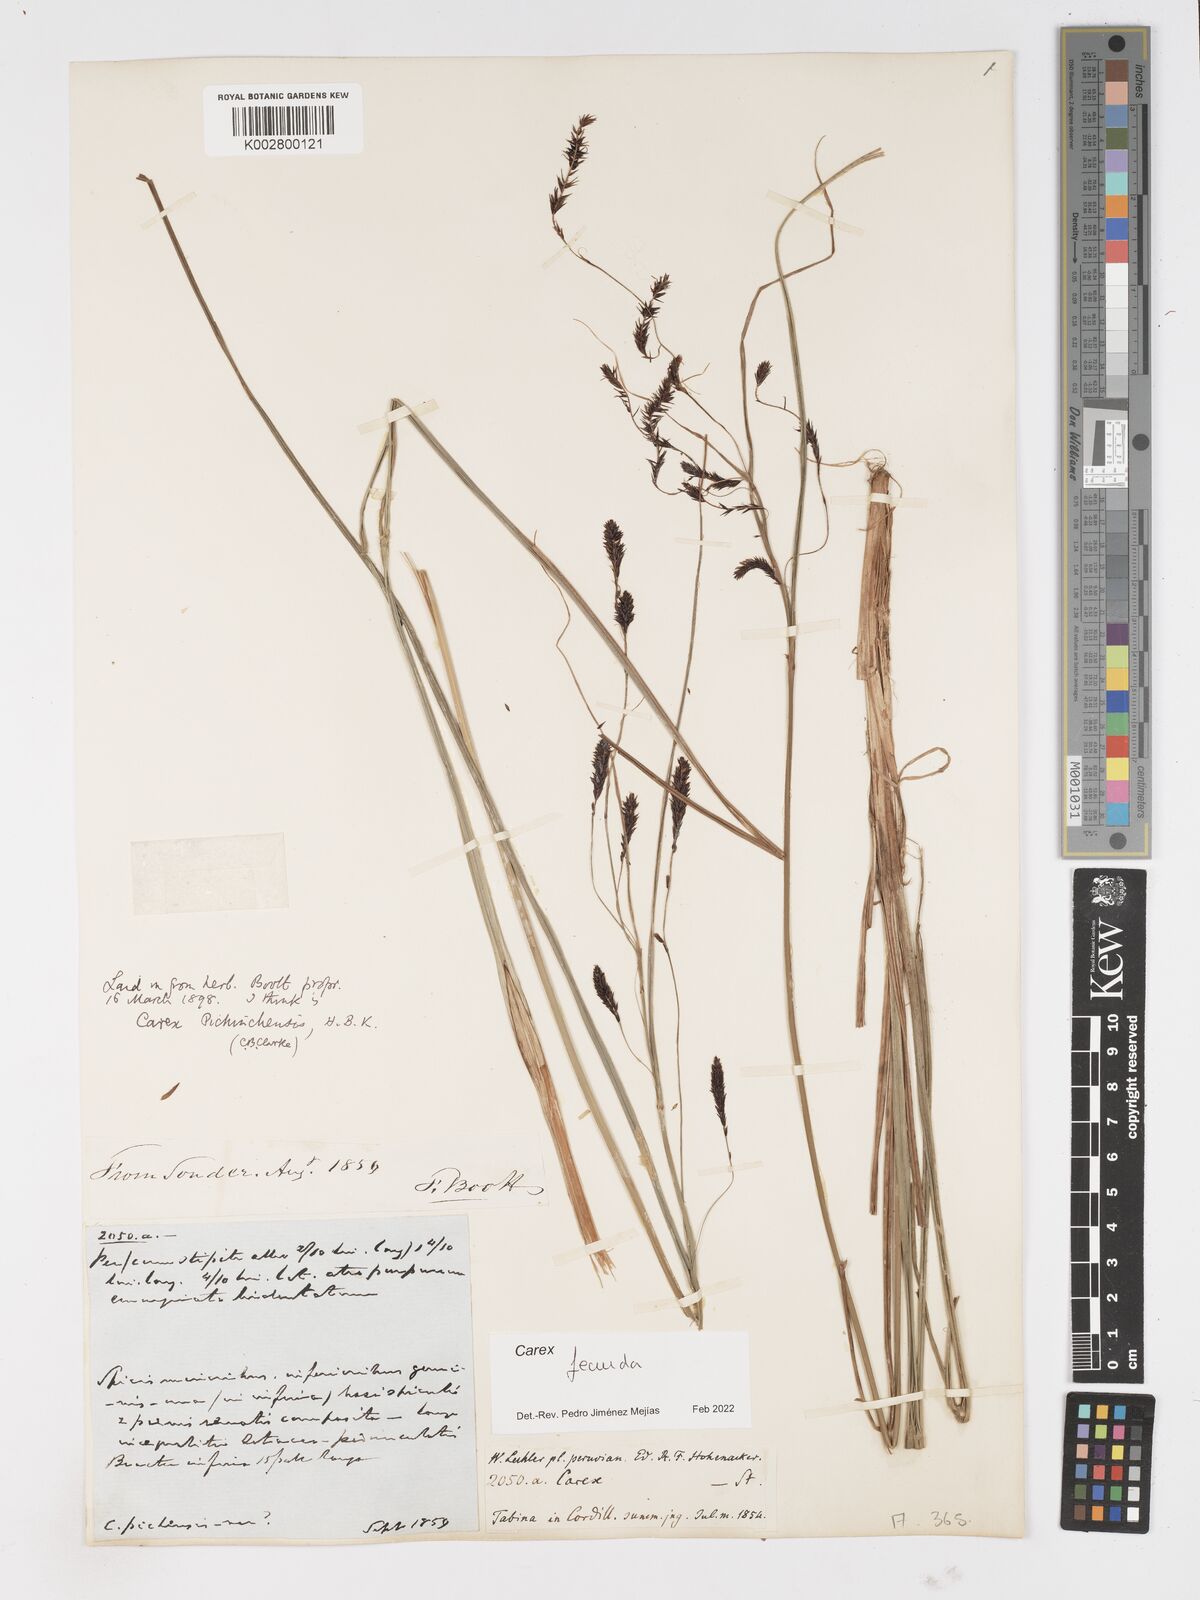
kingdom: Plantae
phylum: Tracheophyta
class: Liliopsida
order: Poales
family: Cyperaceae
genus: Carex
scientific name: Carex fecunda
